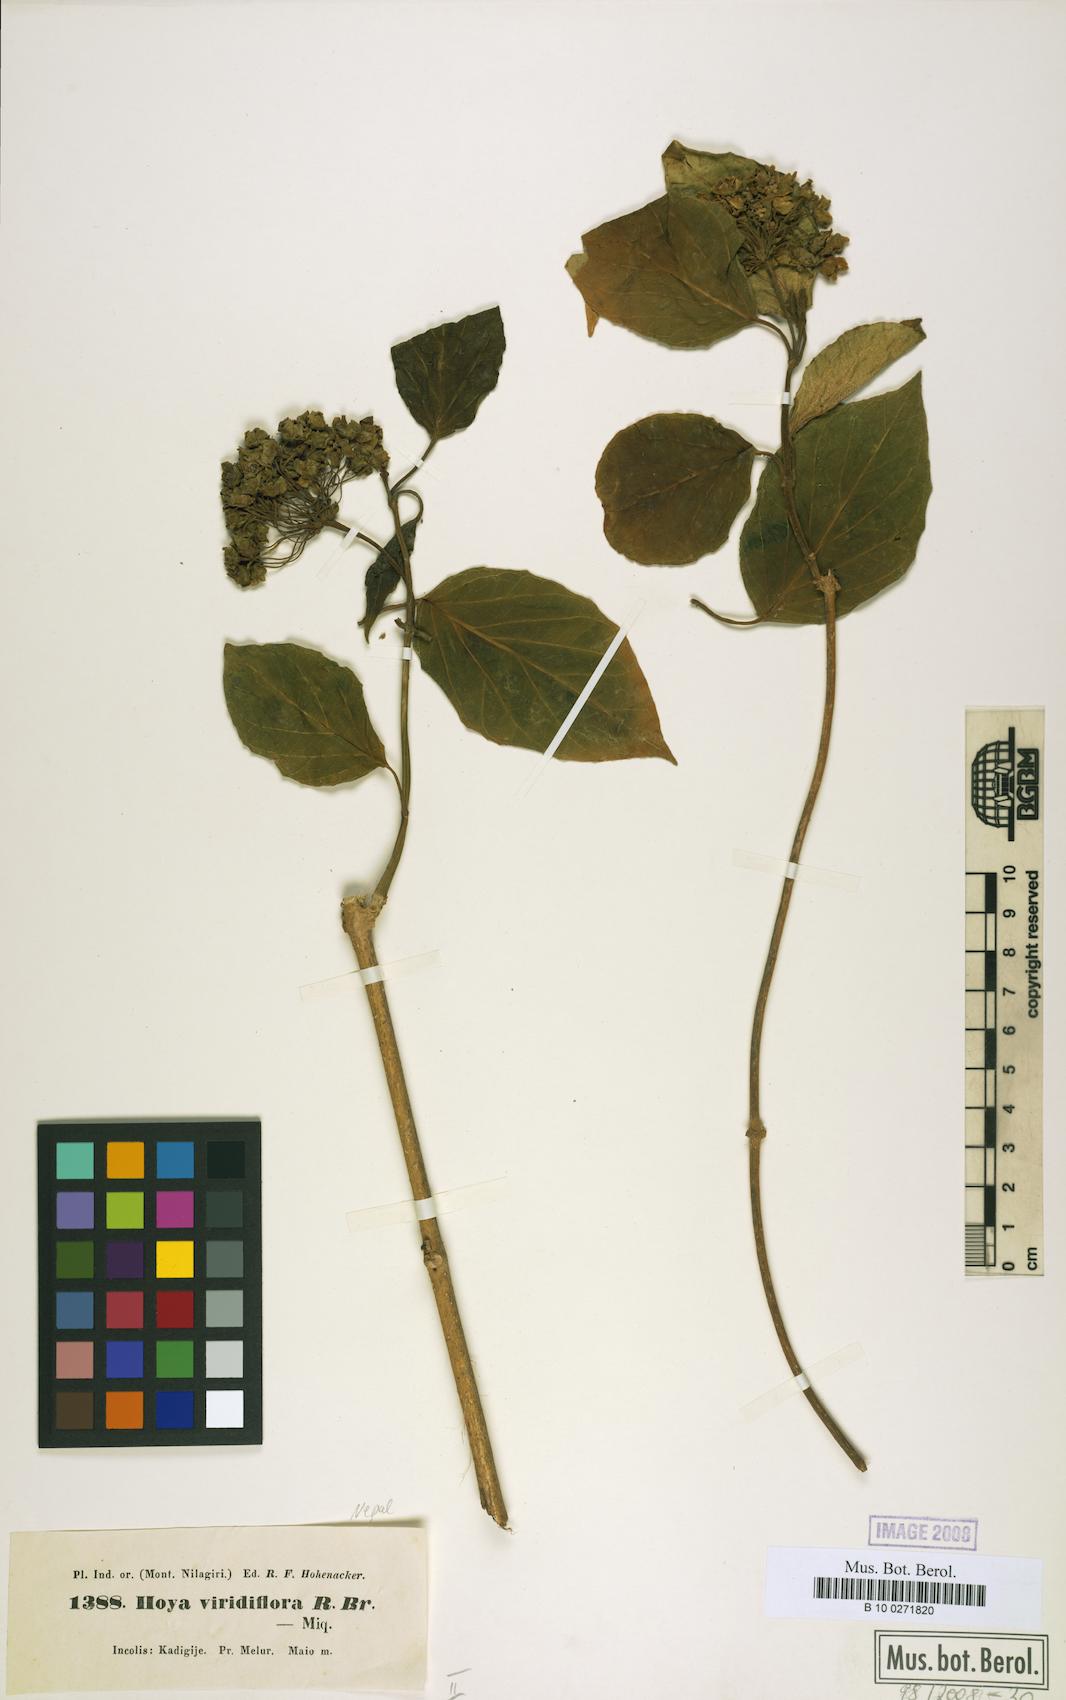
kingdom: Plantae
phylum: Tracheophyta
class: Magnoliopsida
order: Gentianales
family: Apocynaceae
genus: Stephanotis
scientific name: Stephanotis volubilis
